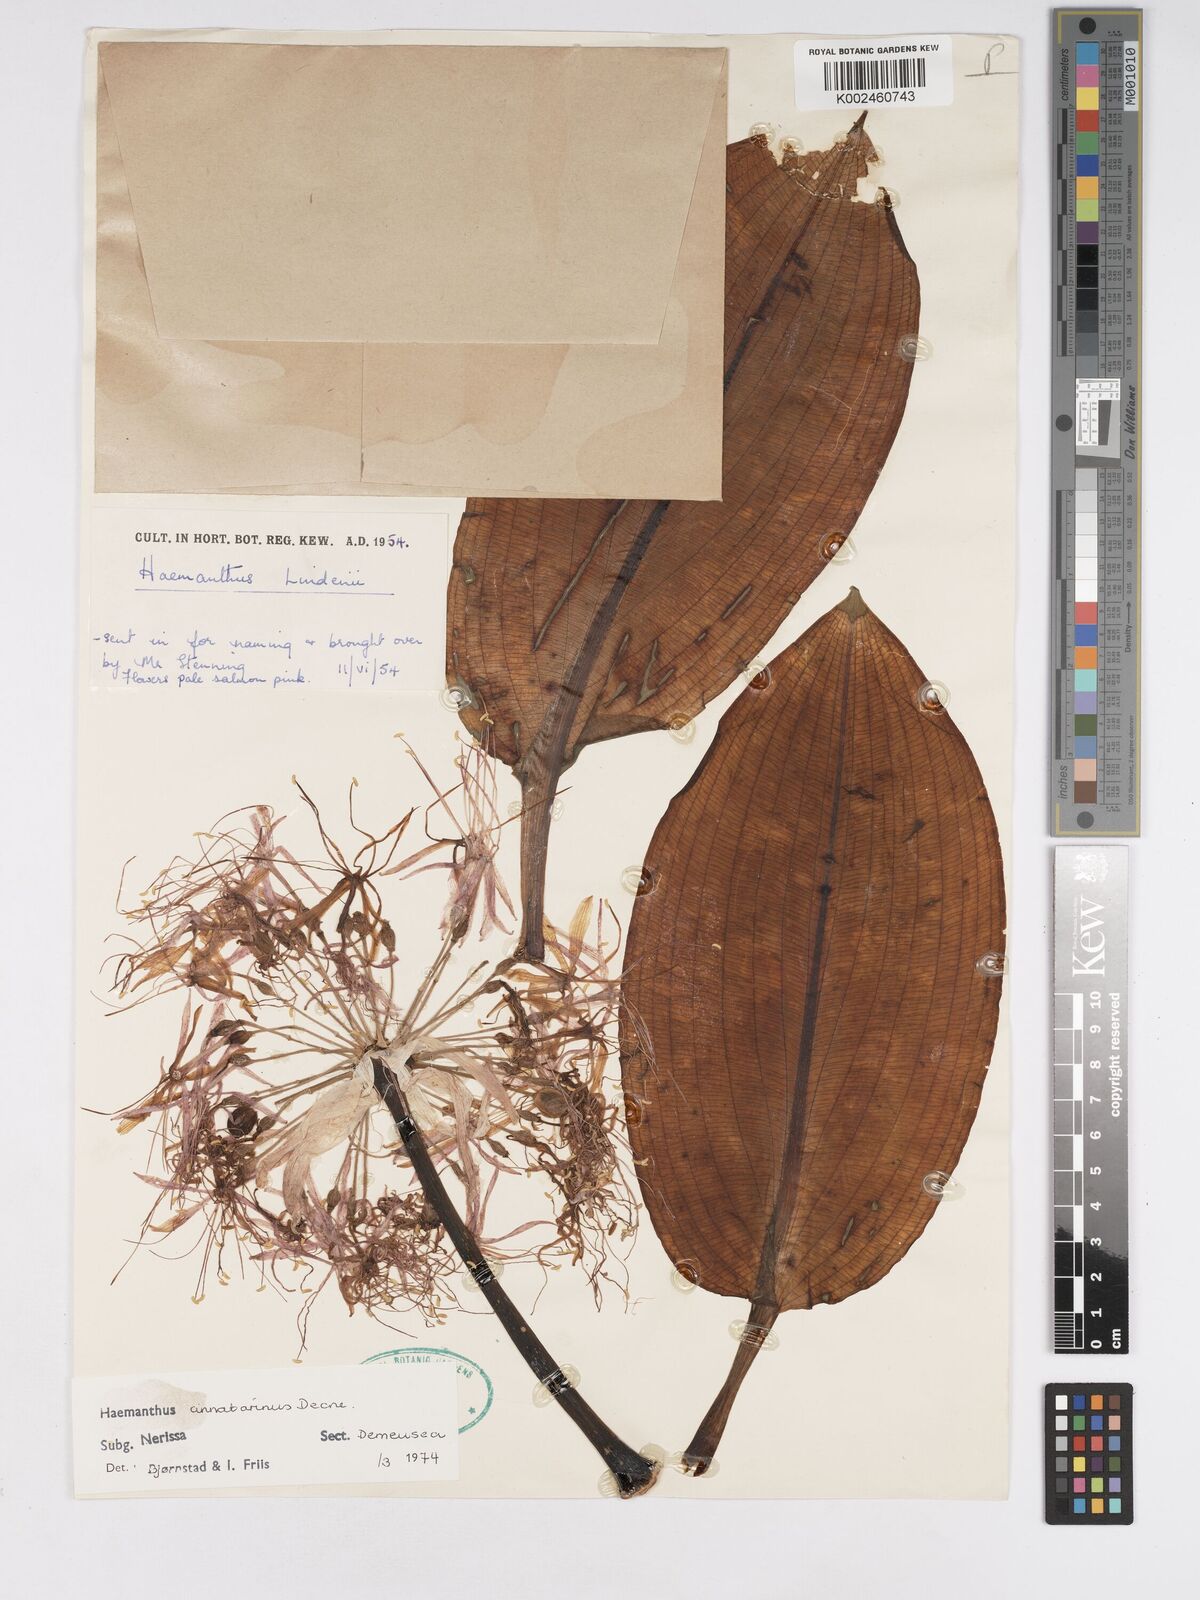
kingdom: Plantae
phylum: Tracheophyta
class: Liliopsida
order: Asparagales
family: Amaryllidaceae
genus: Scadoxus
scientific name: Scadoxus cinnabarinus
